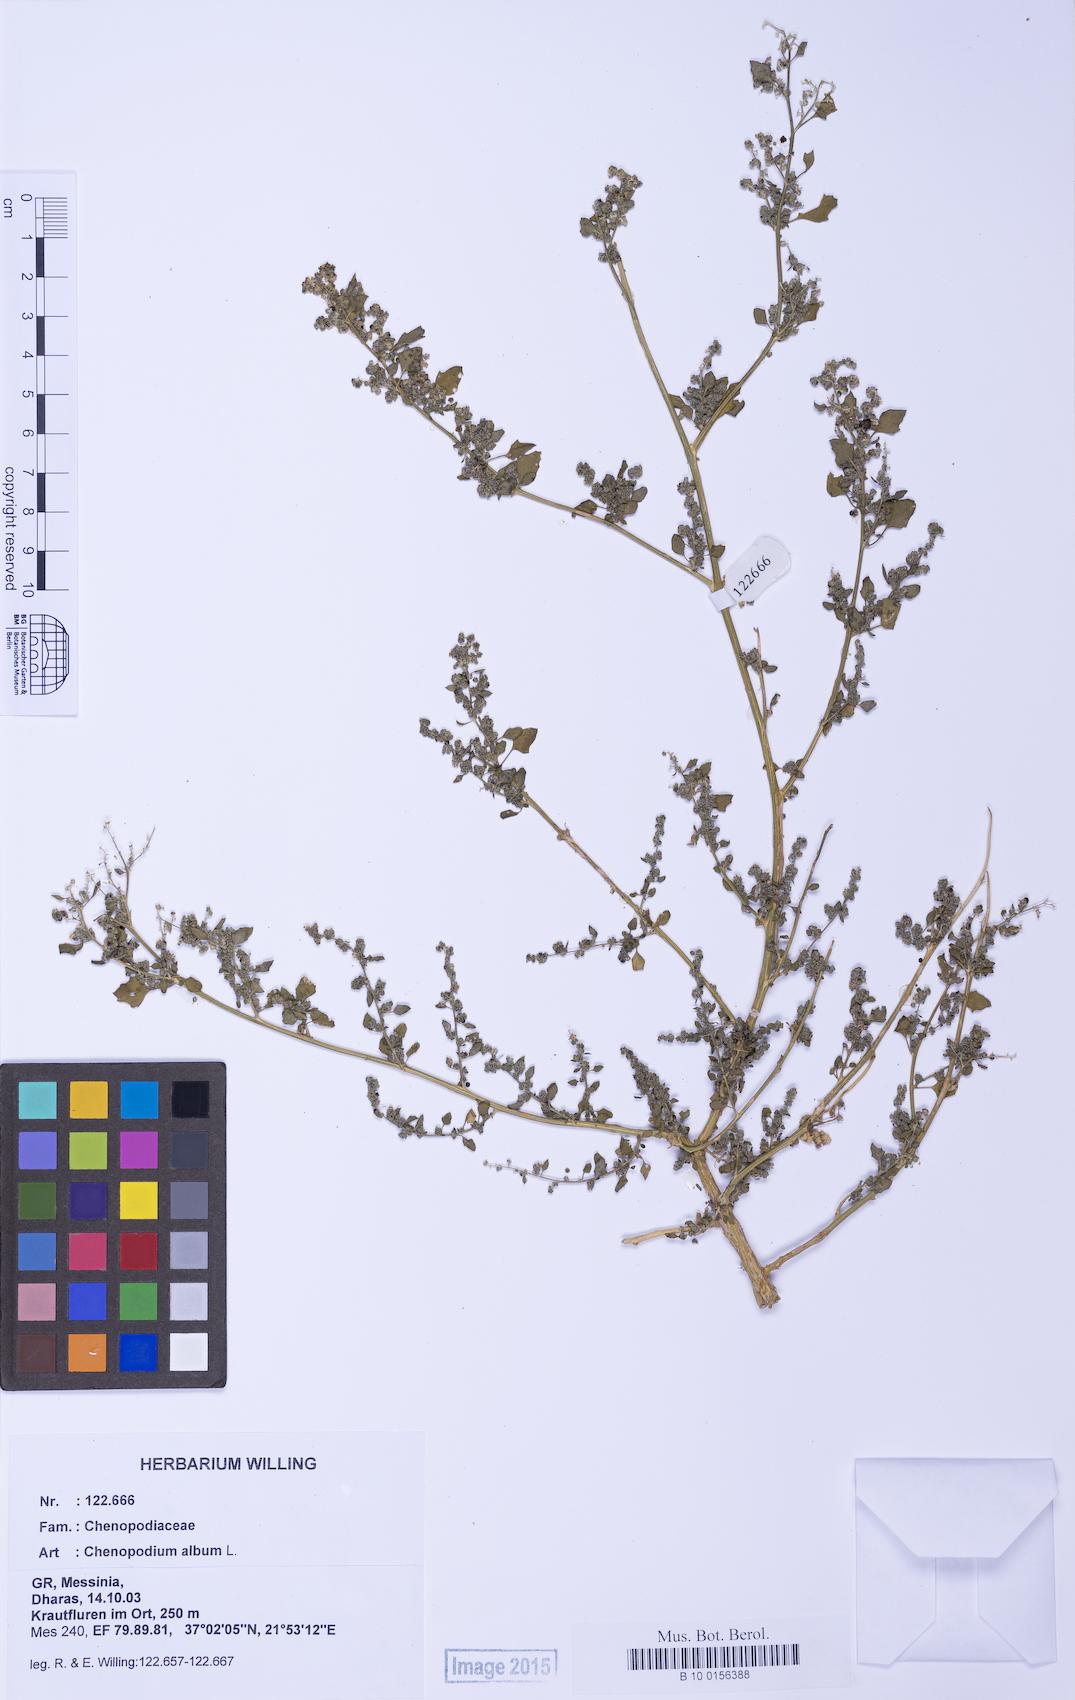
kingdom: Plantae
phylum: Tracheophyta
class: Magnoliopsida
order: Caryophyllales
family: Amaranthaceae
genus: Chenopodium
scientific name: Chenopodium album
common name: Fat-hen
